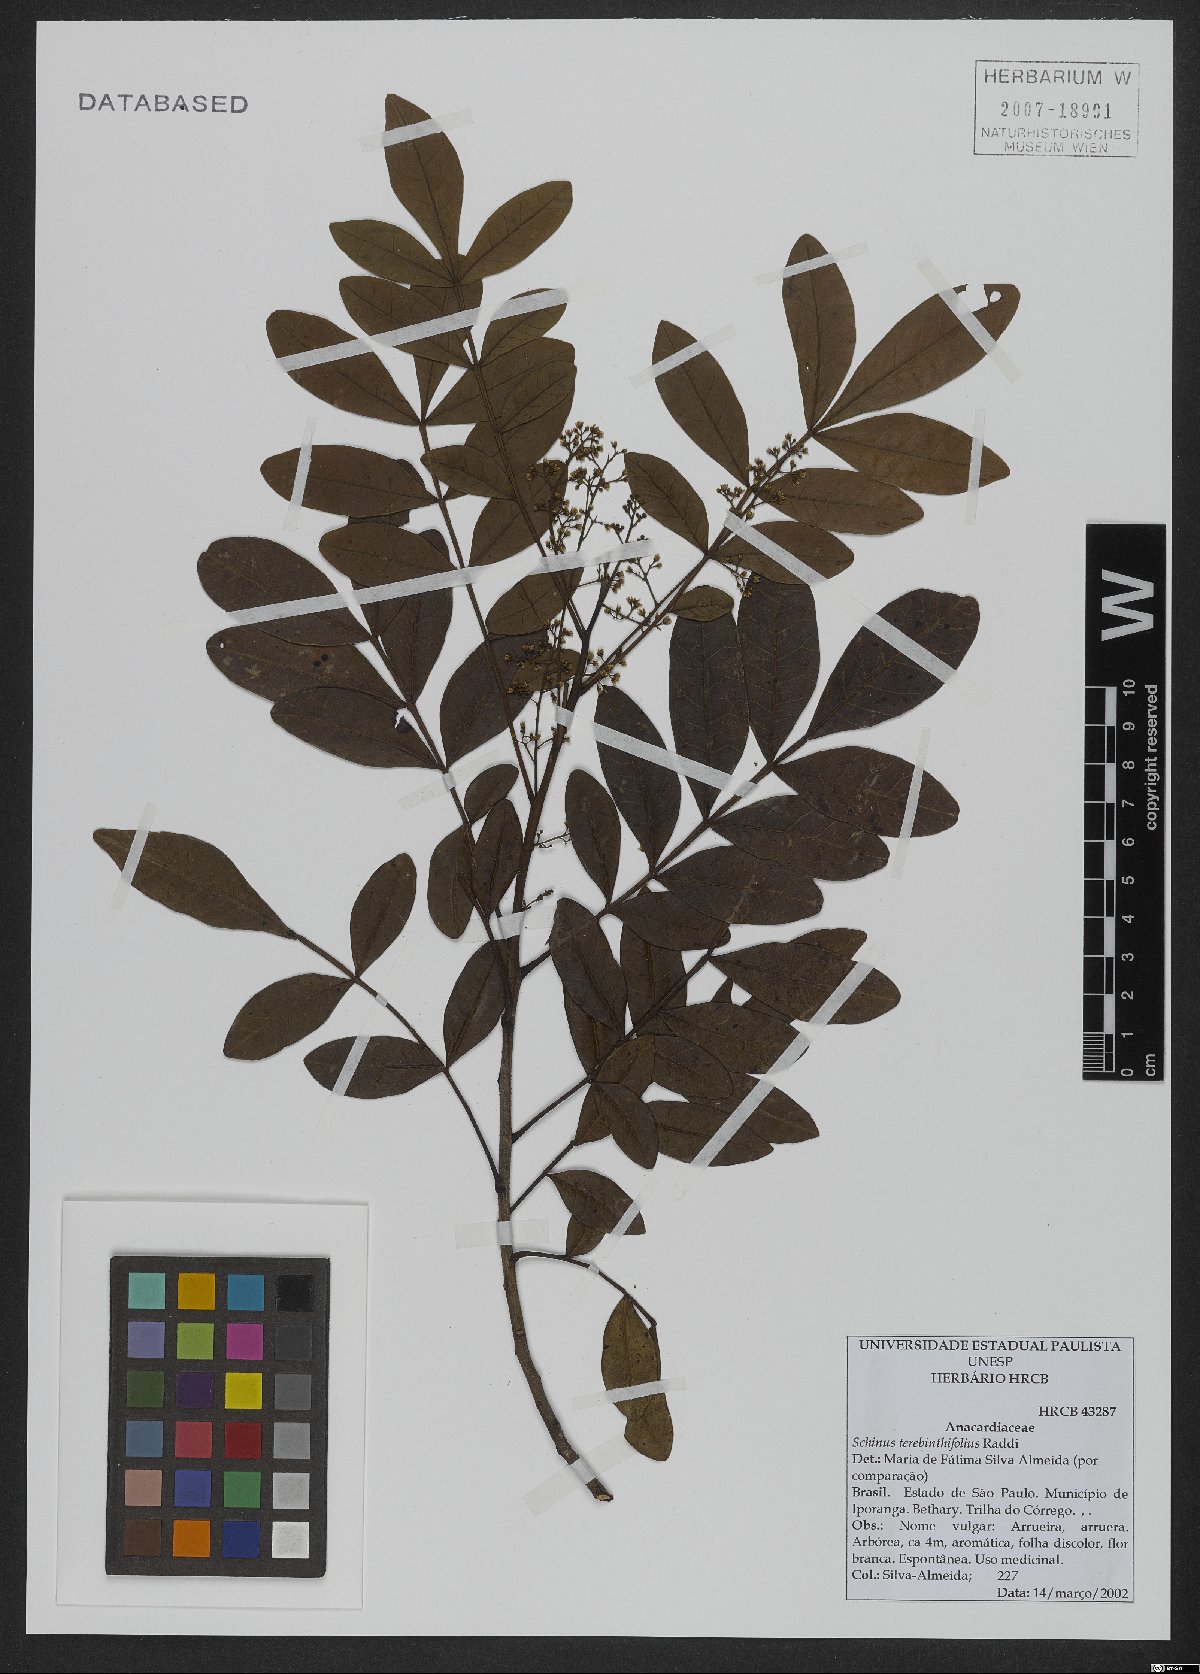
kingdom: Plantae
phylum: Tracheophyta
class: Magnoliopsida
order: Sapindales
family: Anacardiaceae
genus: Schinus
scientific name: Schinus terebinthifolia
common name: Brazilian peppertree
